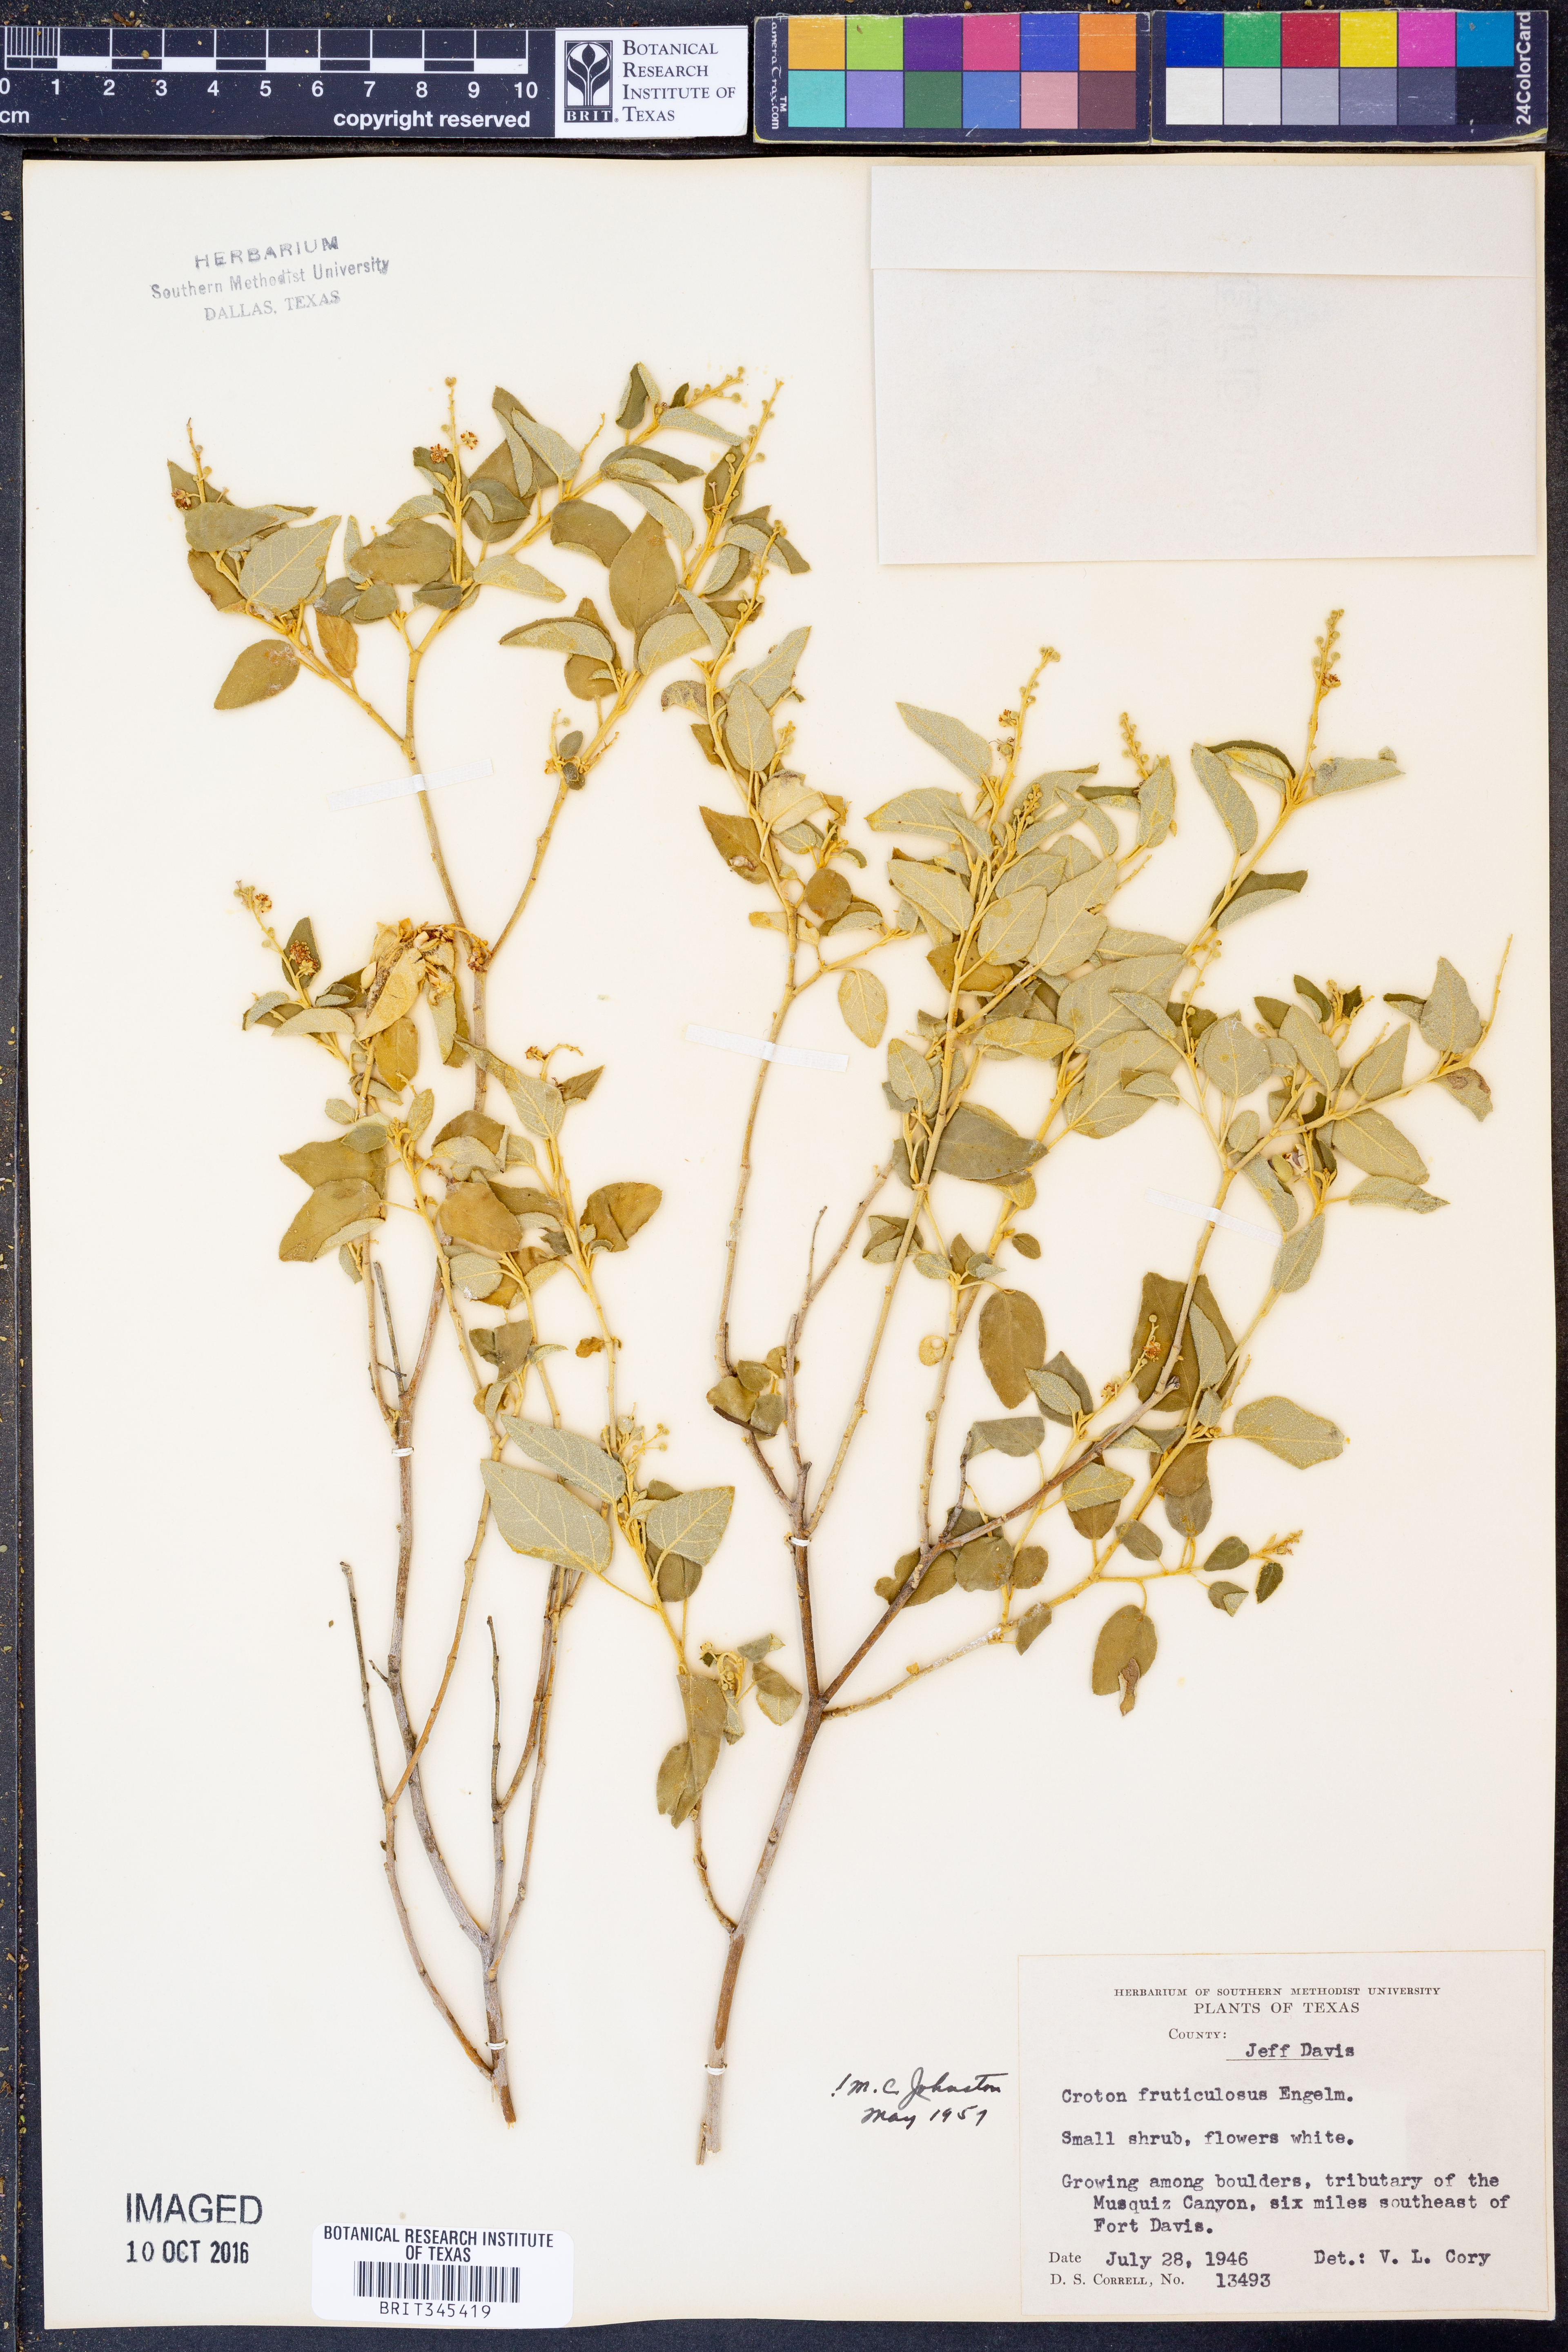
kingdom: Plantae
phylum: Tracheophyta
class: Magnoliopsida
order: Malpighiales
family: Euphorbiaceae
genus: Croton
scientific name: Croton fruticulosus
